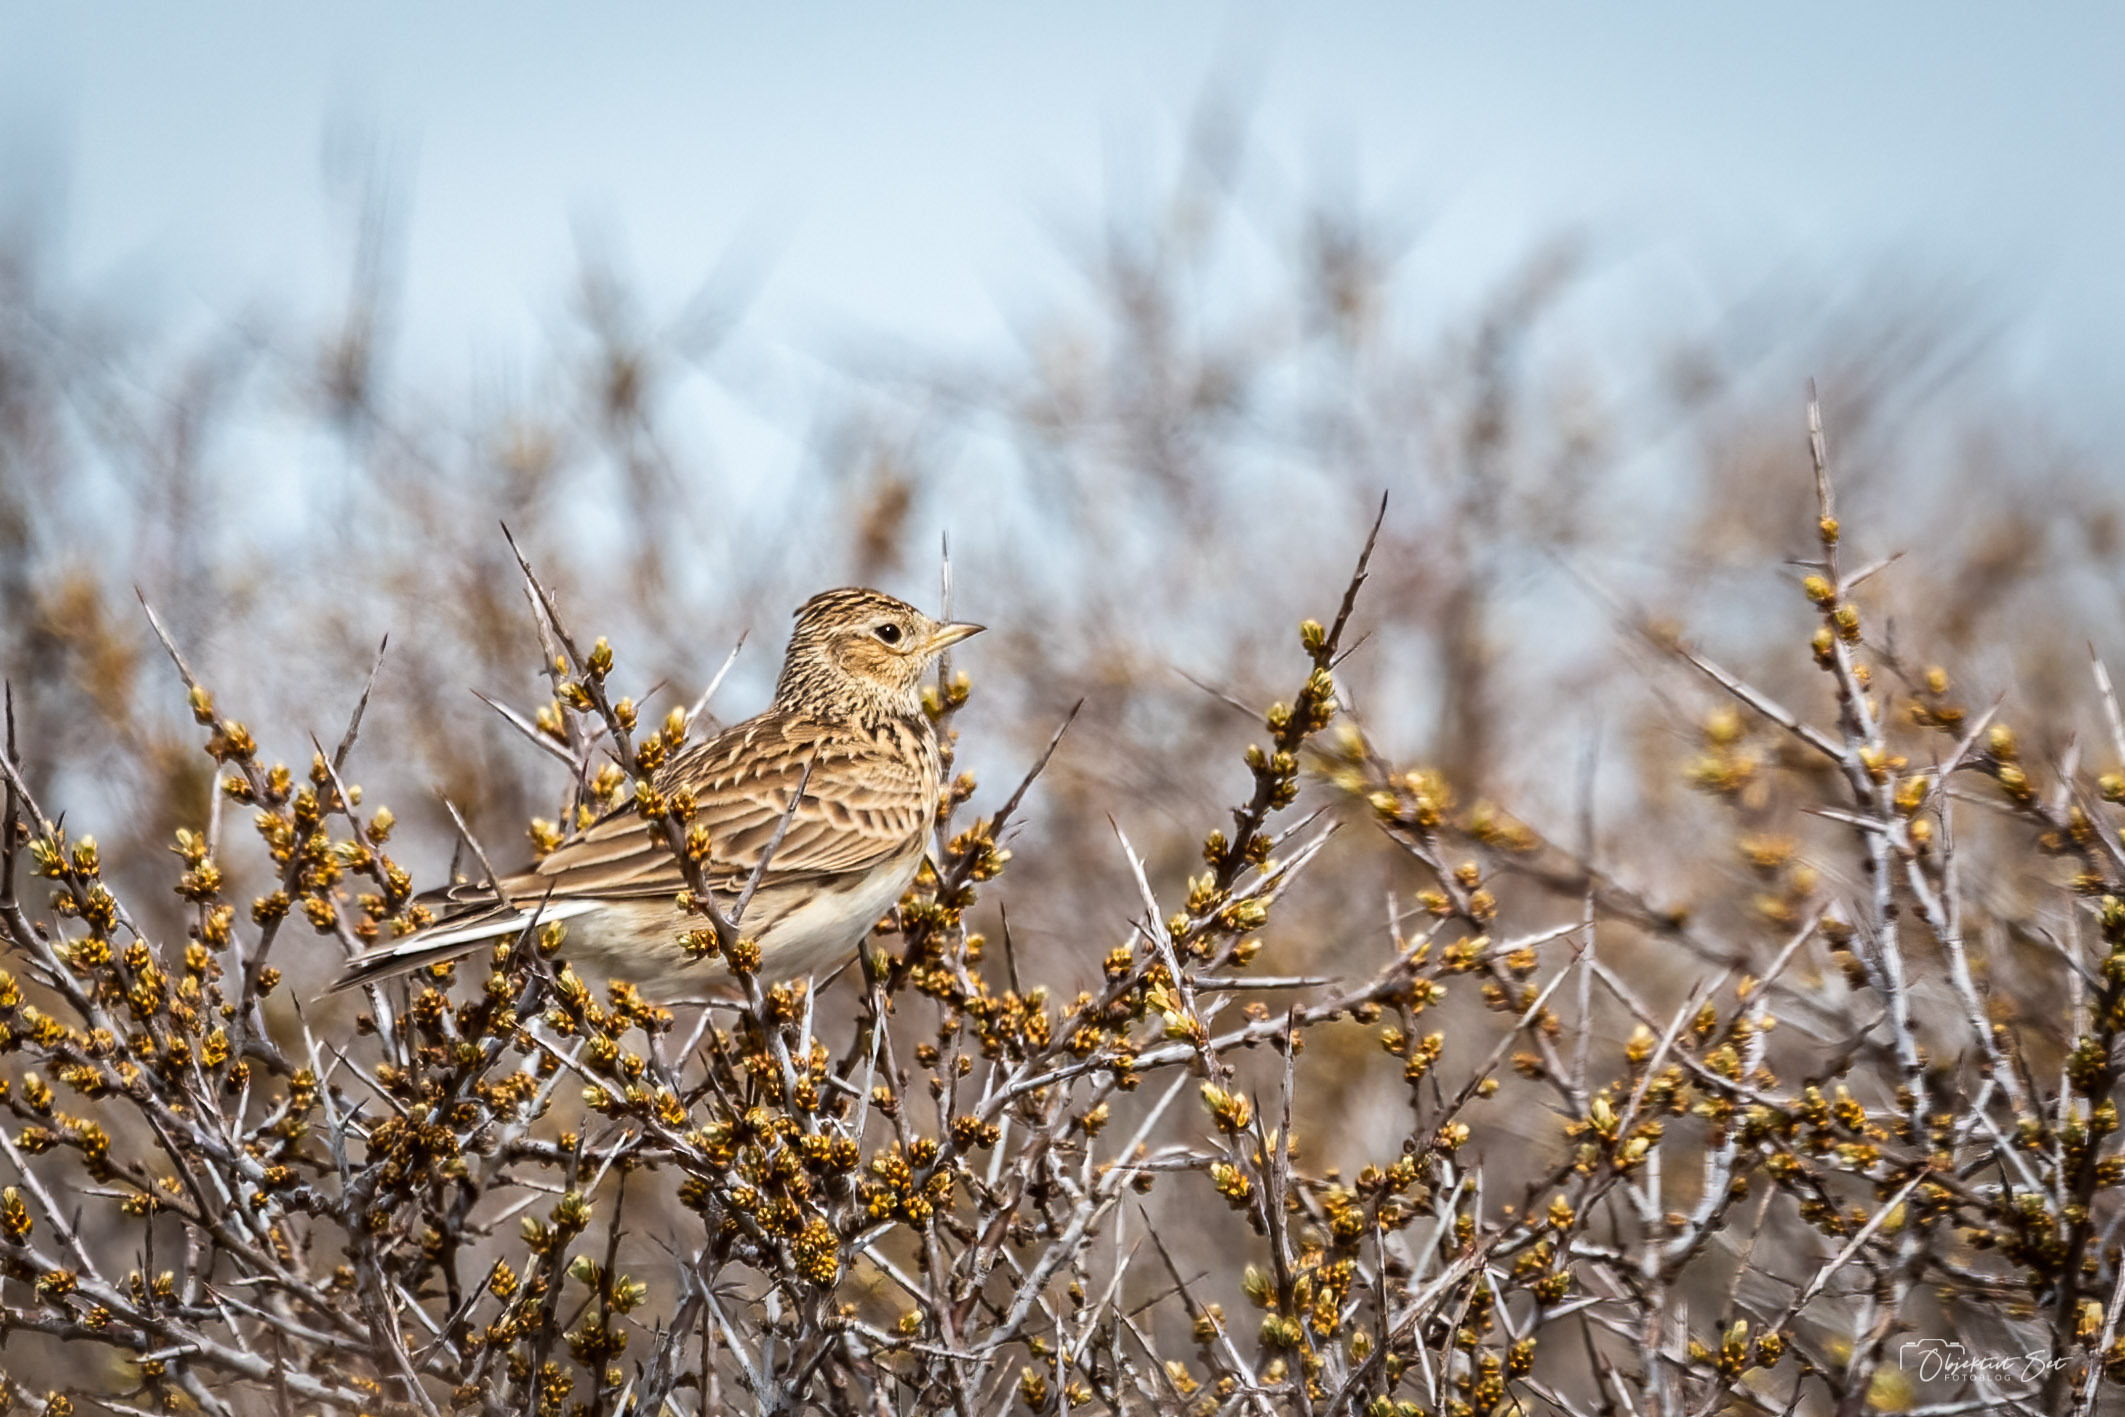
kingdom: Animalia
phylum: Chordata
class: Aves
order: Passeriformes
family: Alaudidae
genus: Alauda
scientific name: Alauda arvensis
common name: Sanglærke
